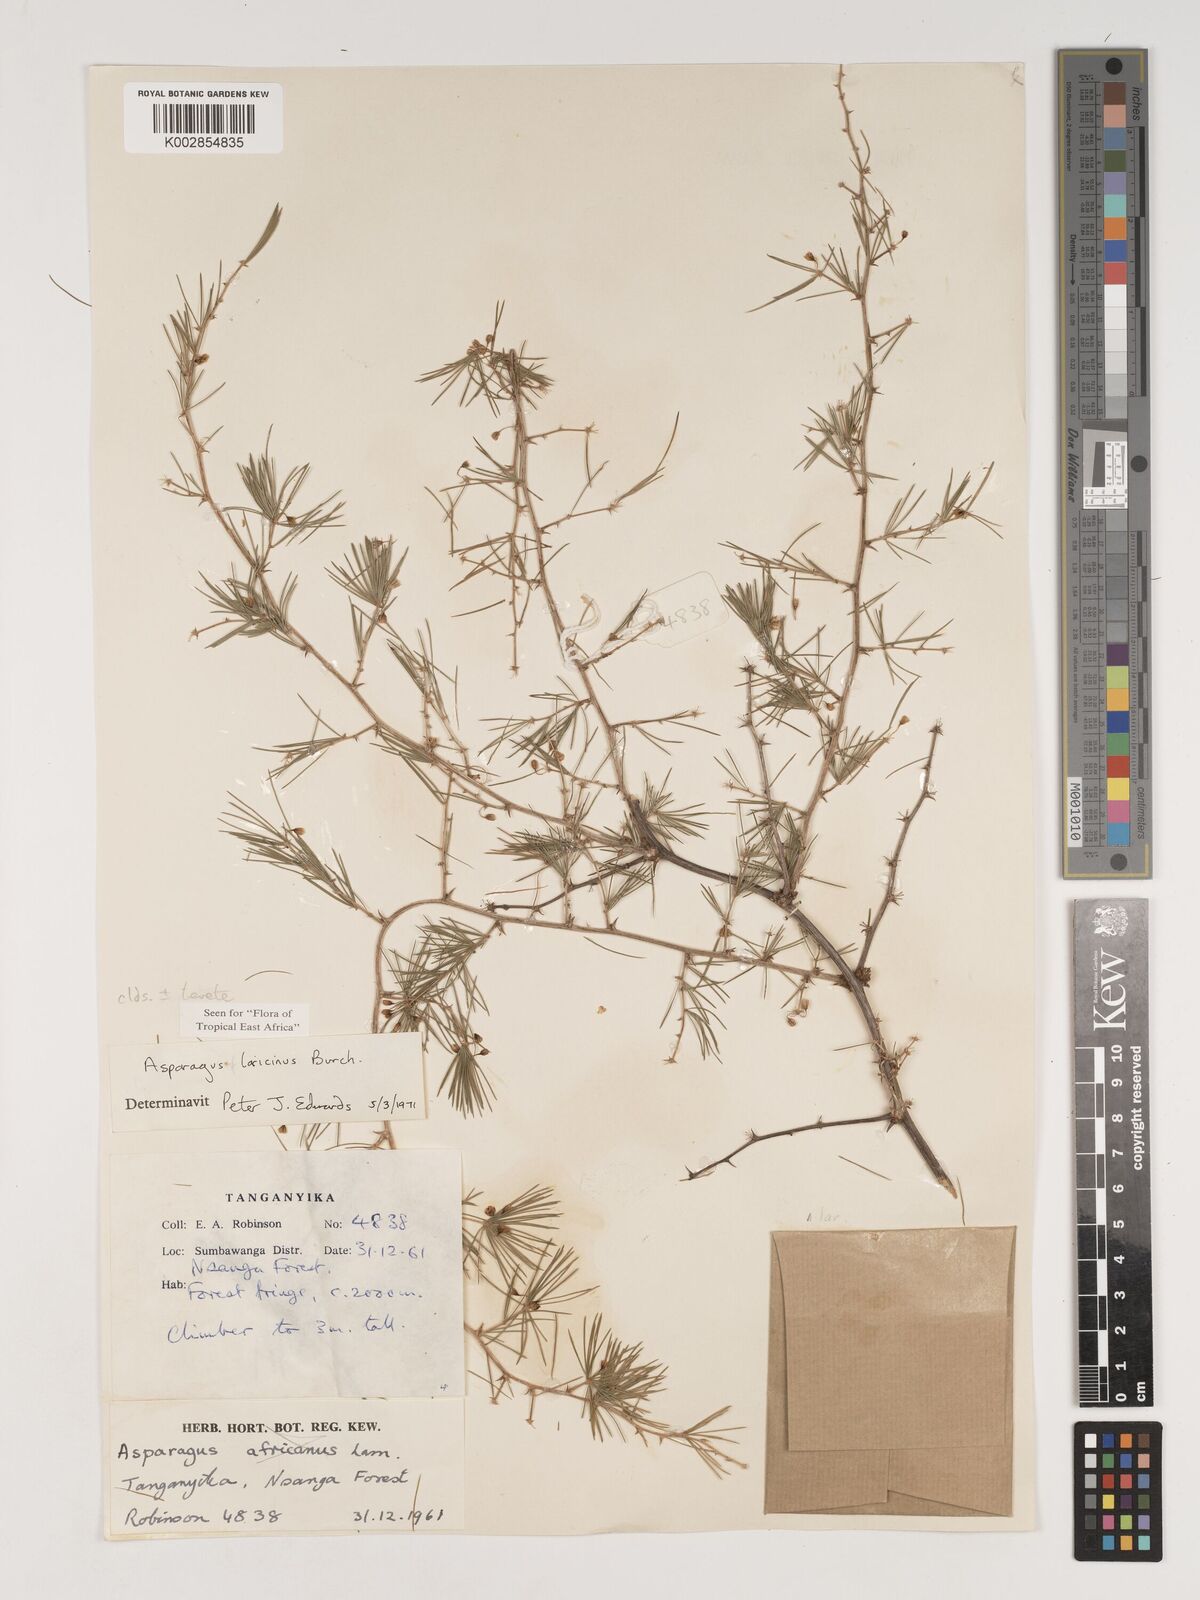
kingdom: Plantae
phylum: Tracheophyta
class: Liliopsida
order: Asparagales
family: Asparagaceae
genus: Asparagus
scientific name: Asparagus laricinus
